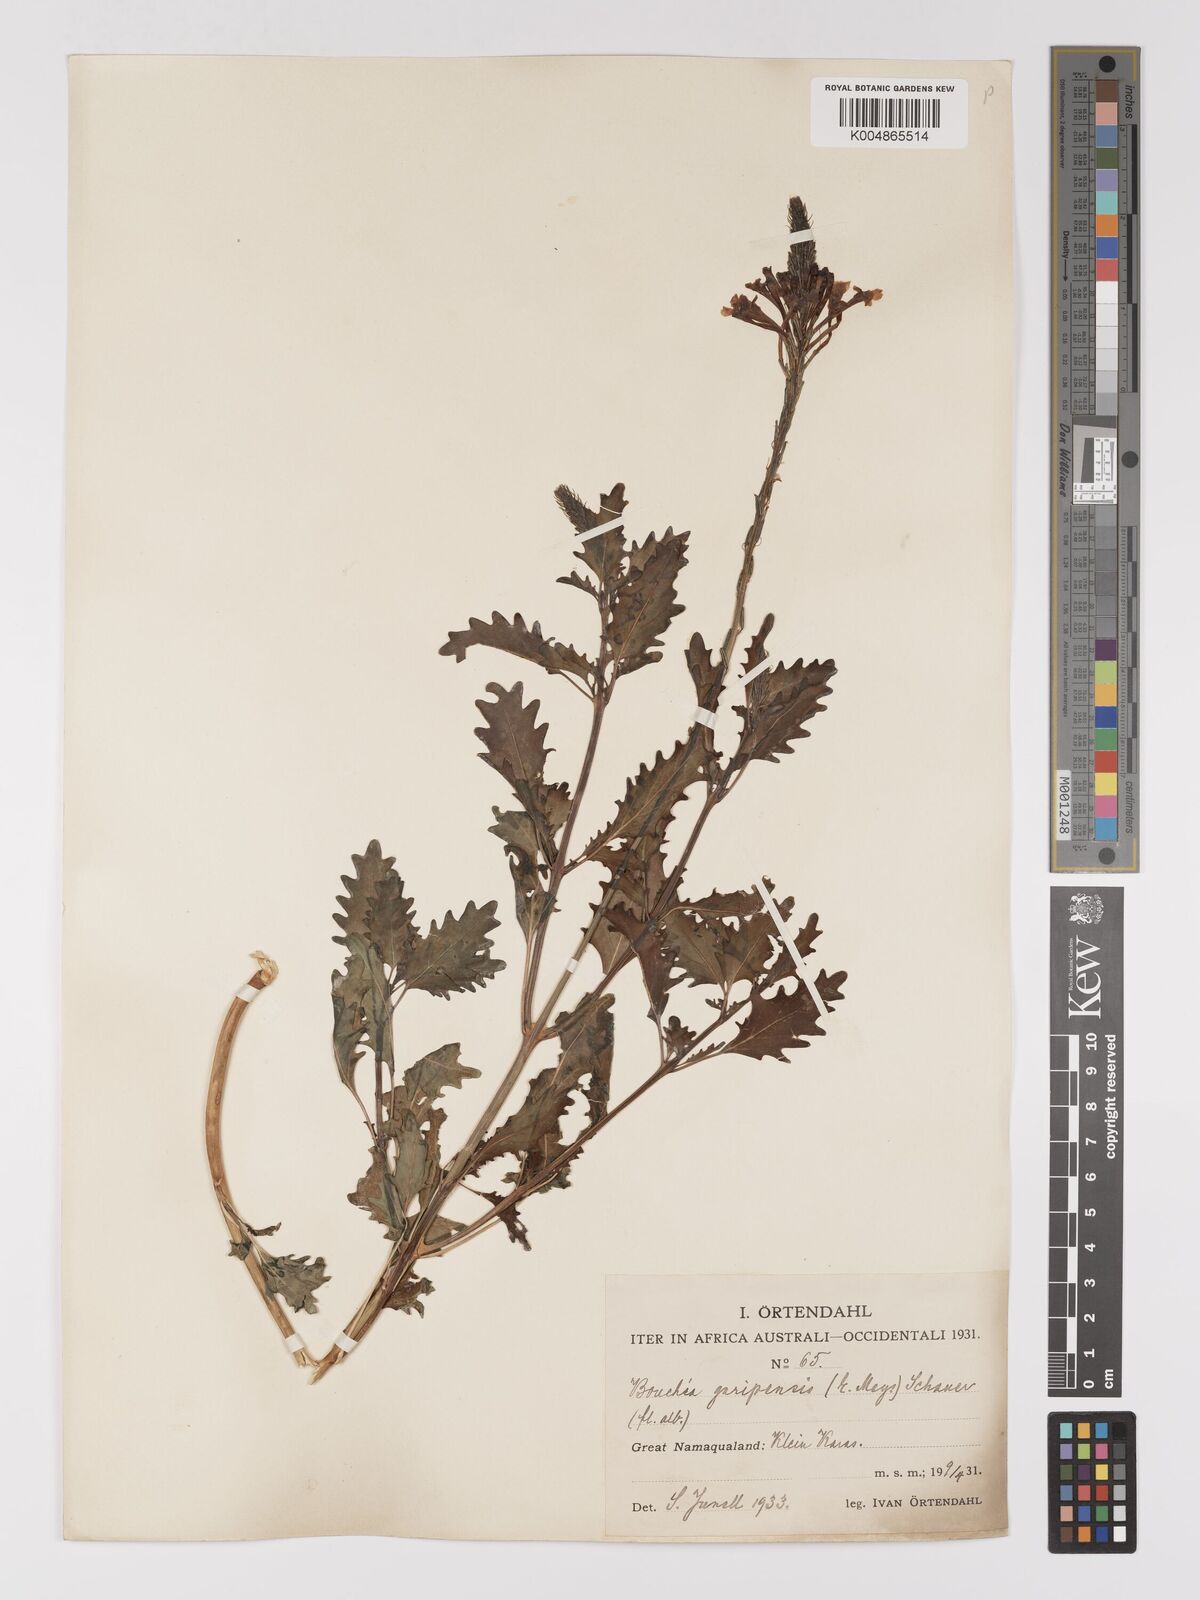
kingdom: Plantae
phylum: Tracheophyta
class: Magnoliopsida
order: Lamiales
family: Verbenaceae
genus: Chascanum
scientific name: Chascanum garipense
